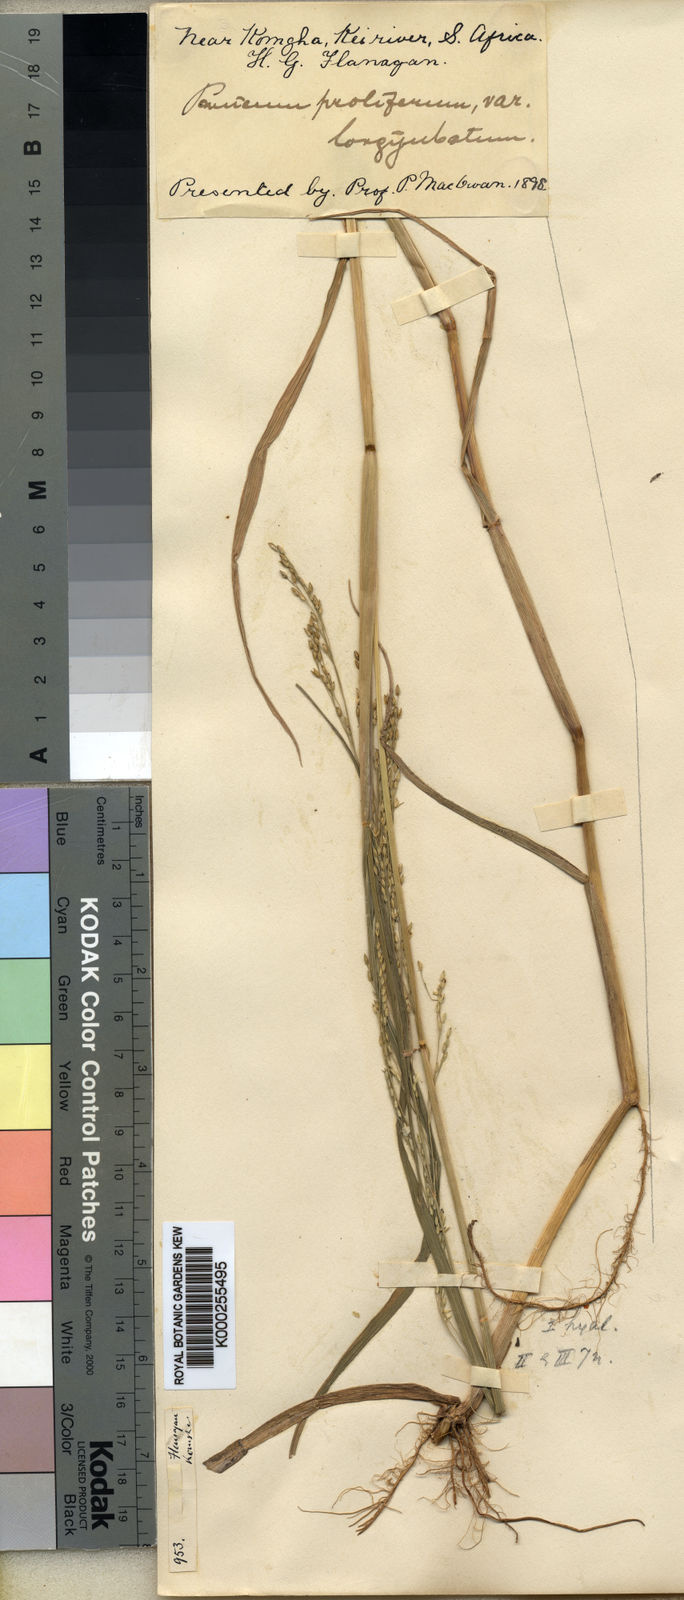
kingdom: Plantae
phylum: Tracheophyta
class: Liliopsida
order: Poales
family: Poaceae
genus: Panicum
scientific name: Panicum subalbidum
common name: Elbow buffalo grass
